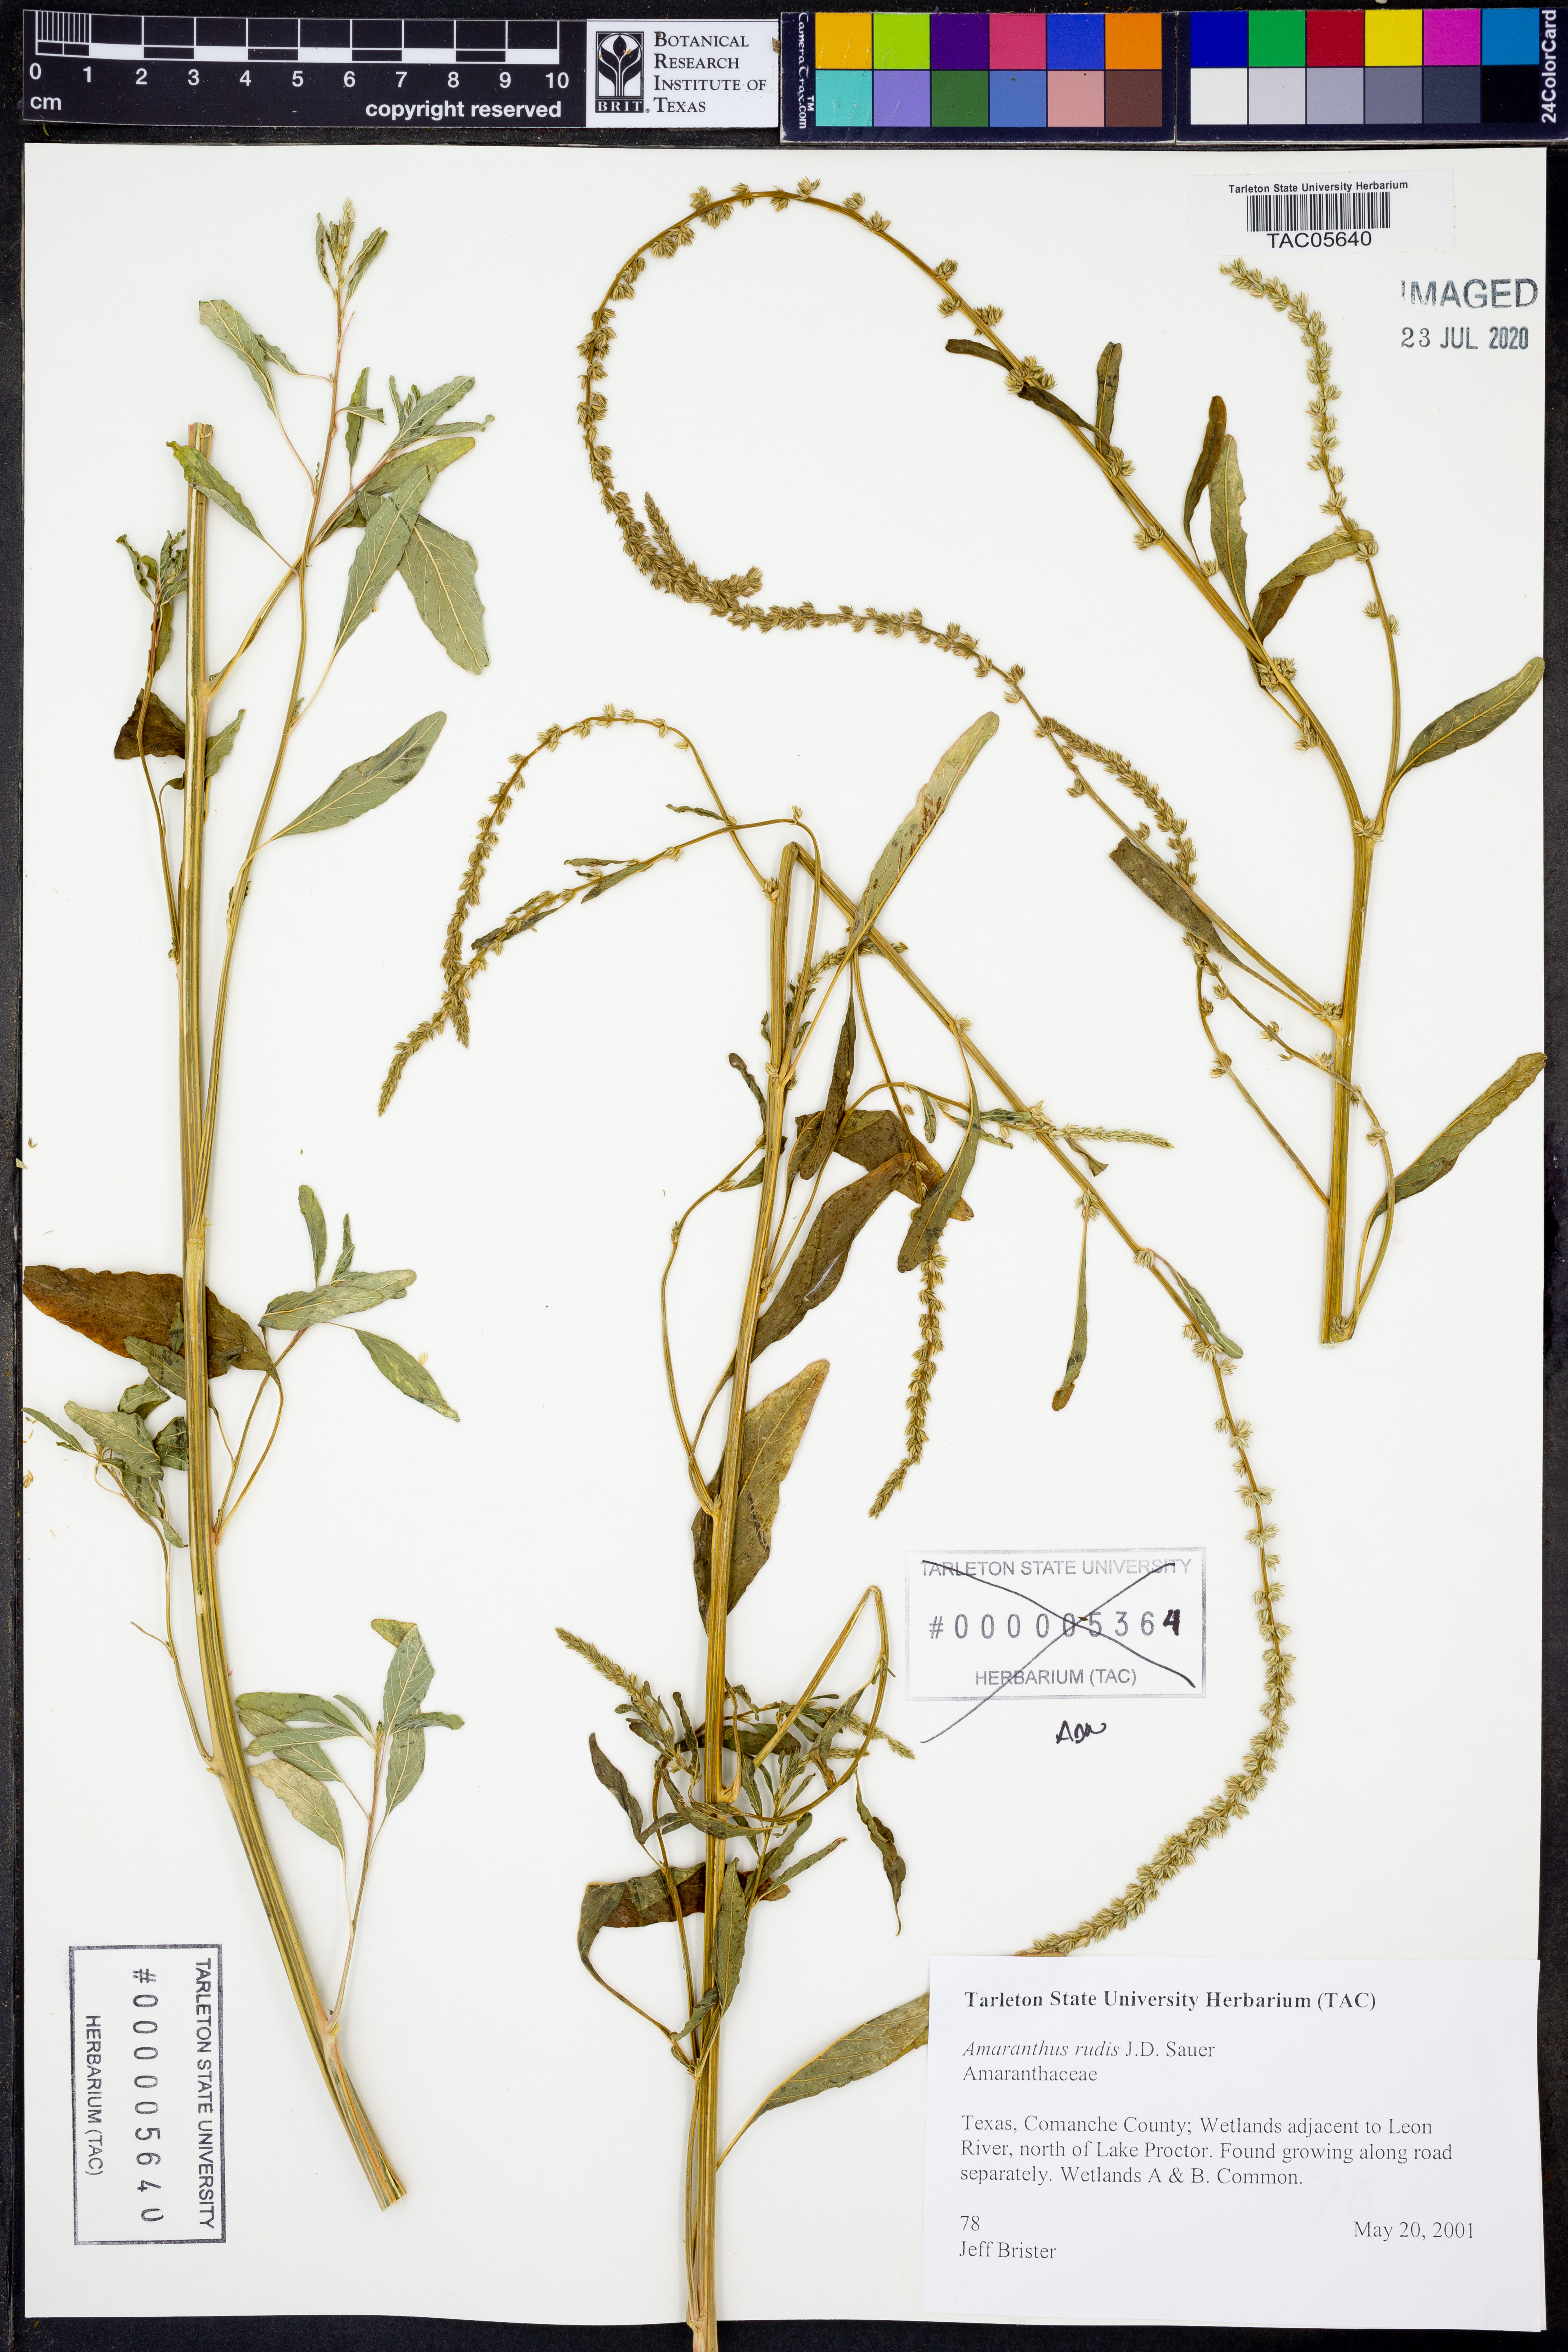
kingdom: Plantae
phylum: Tracheophyta
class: Magnoliopsida
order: Caryophyllales
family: Amaranthaceae
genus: Amaranthus
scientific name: Amaranthus tuberculatus
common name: Rough-fruit amaranth
